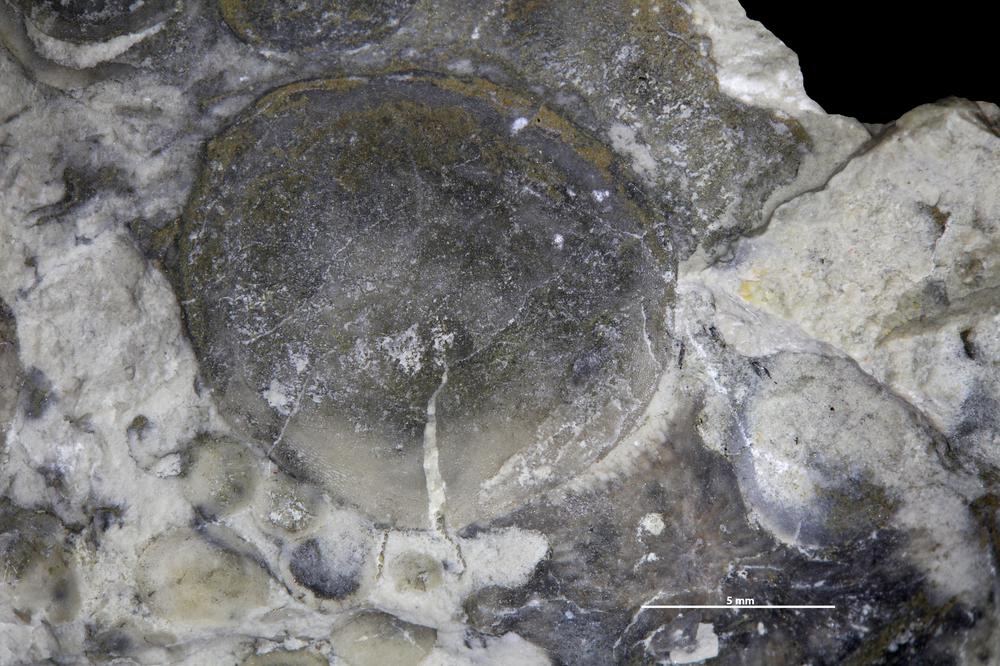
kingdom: Animalia
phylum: Brachiopoda
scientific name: Brachiopoda
